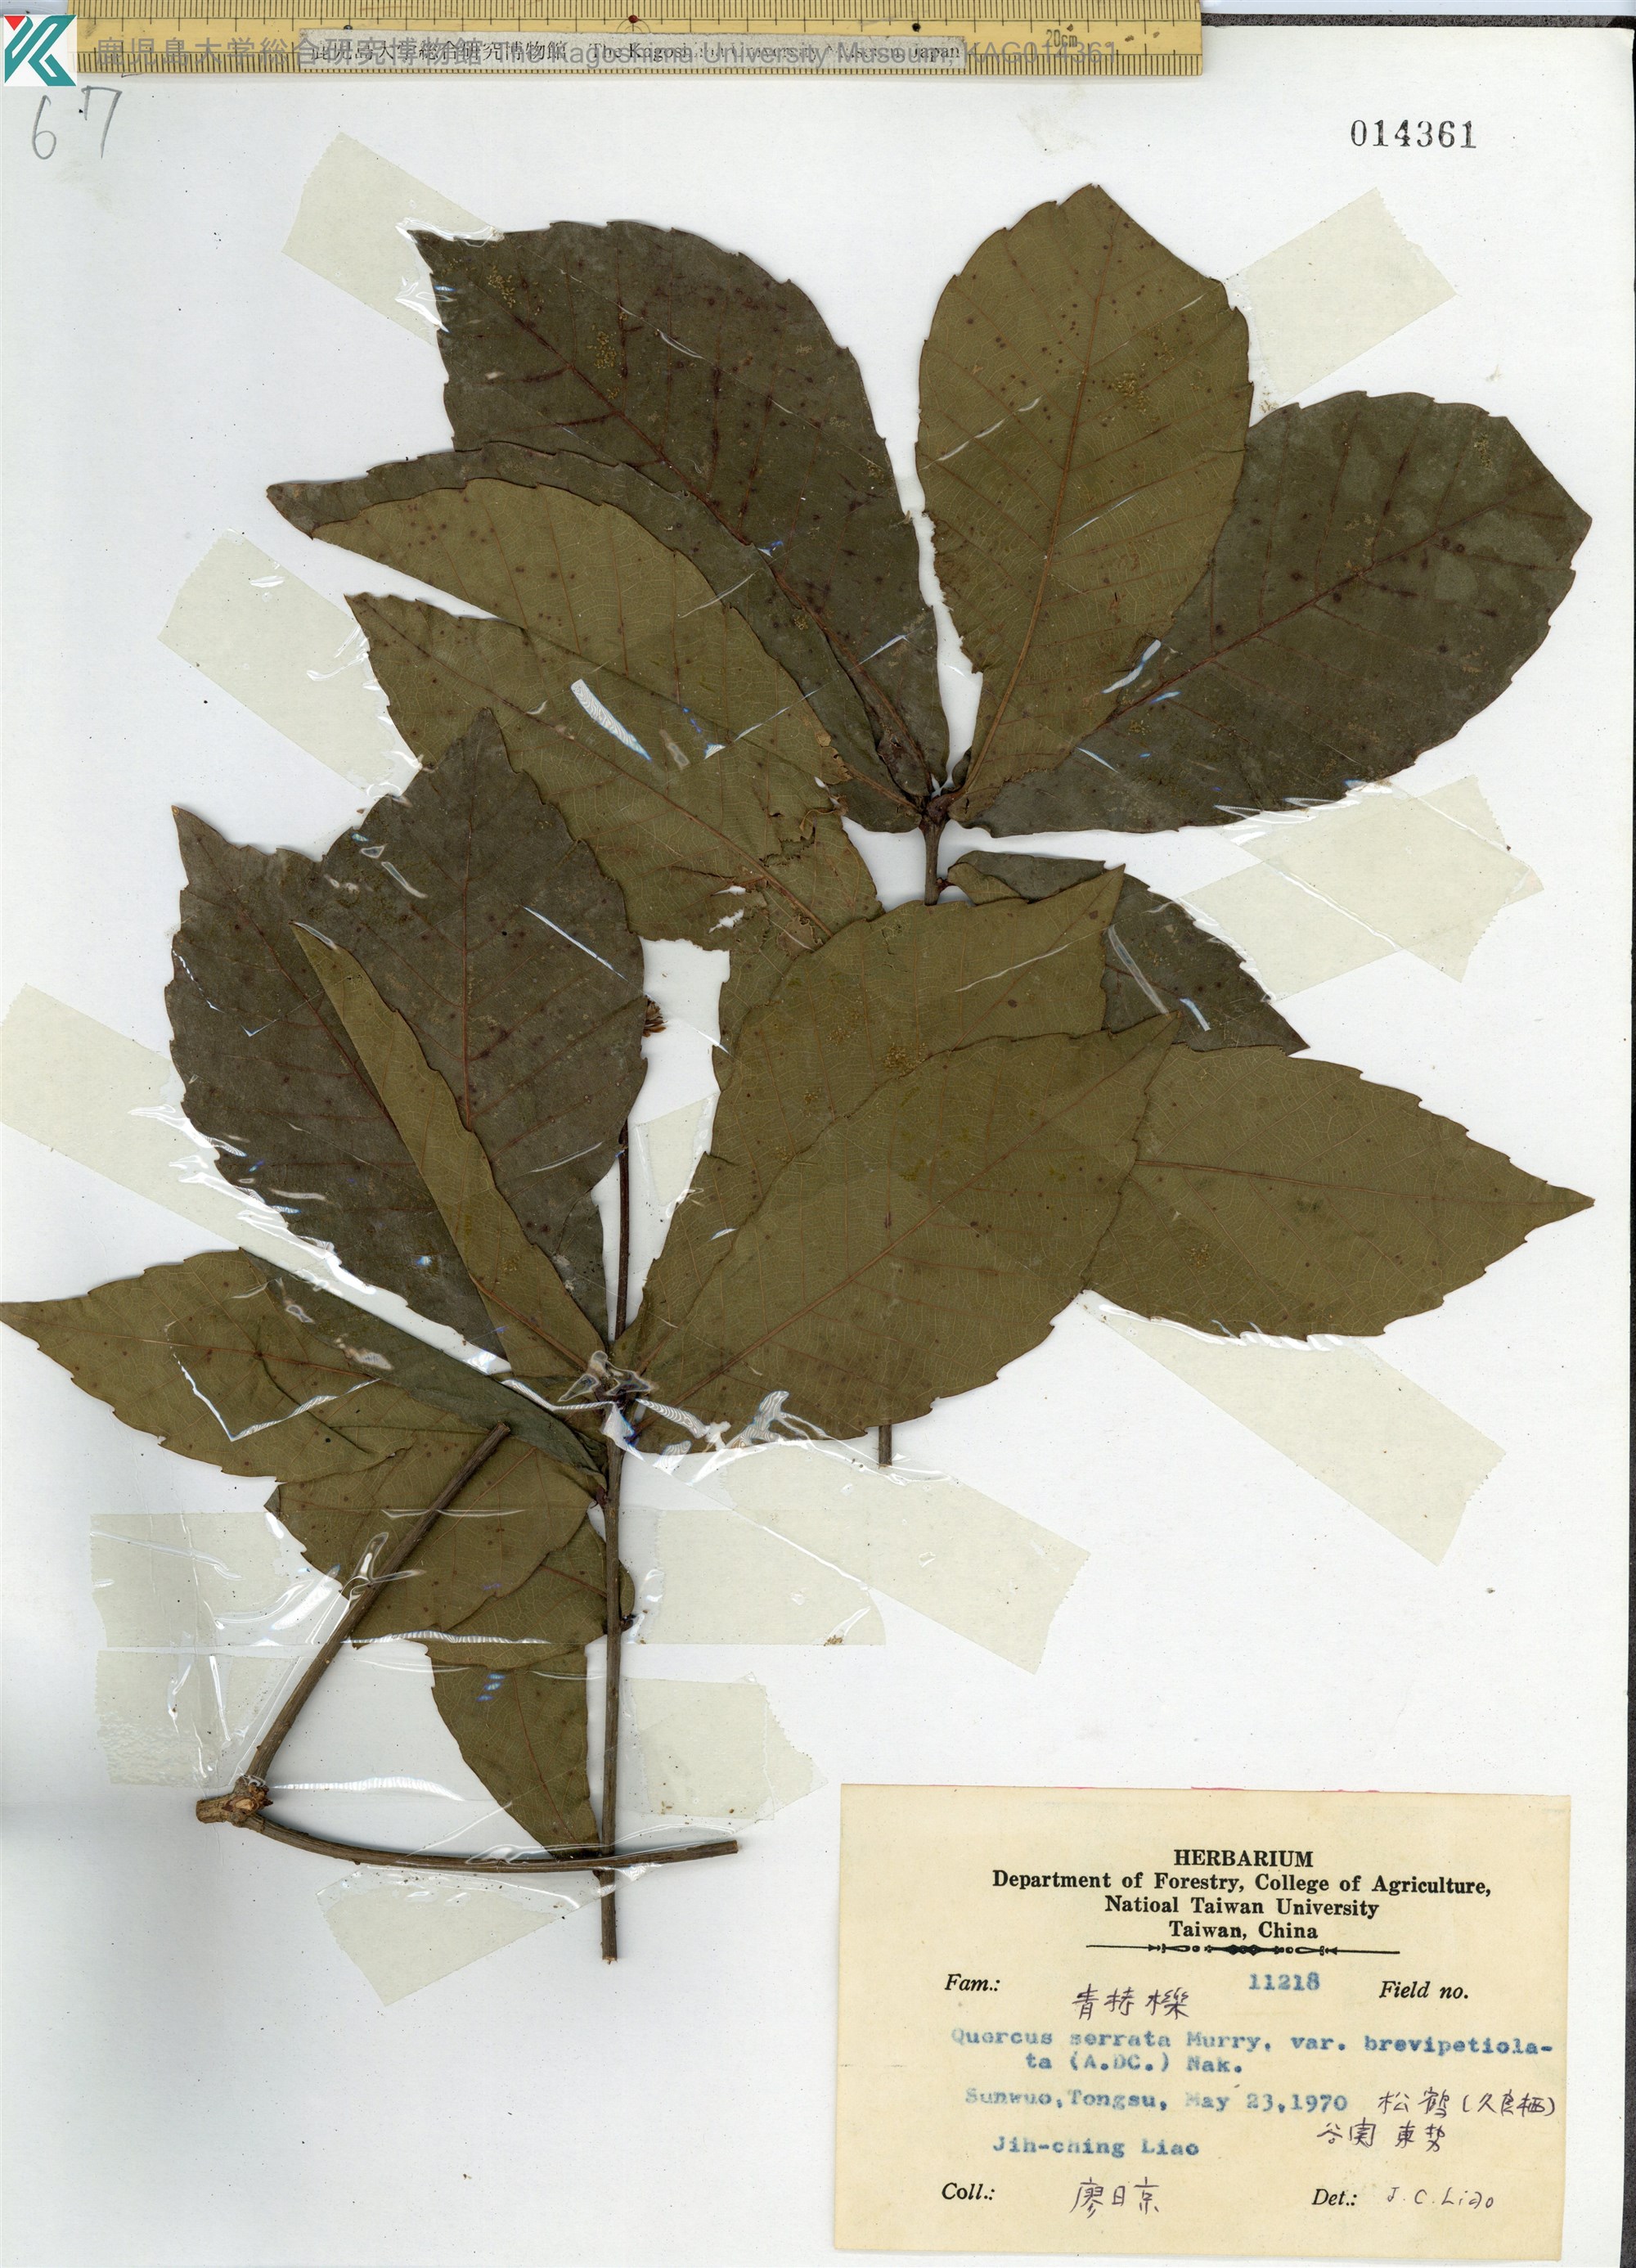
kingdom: Plantae
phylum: Tracheophyta
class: Magnoliopsida
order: Fagales
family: Fagaceae
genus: Quercus
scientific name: Quercus serrata
